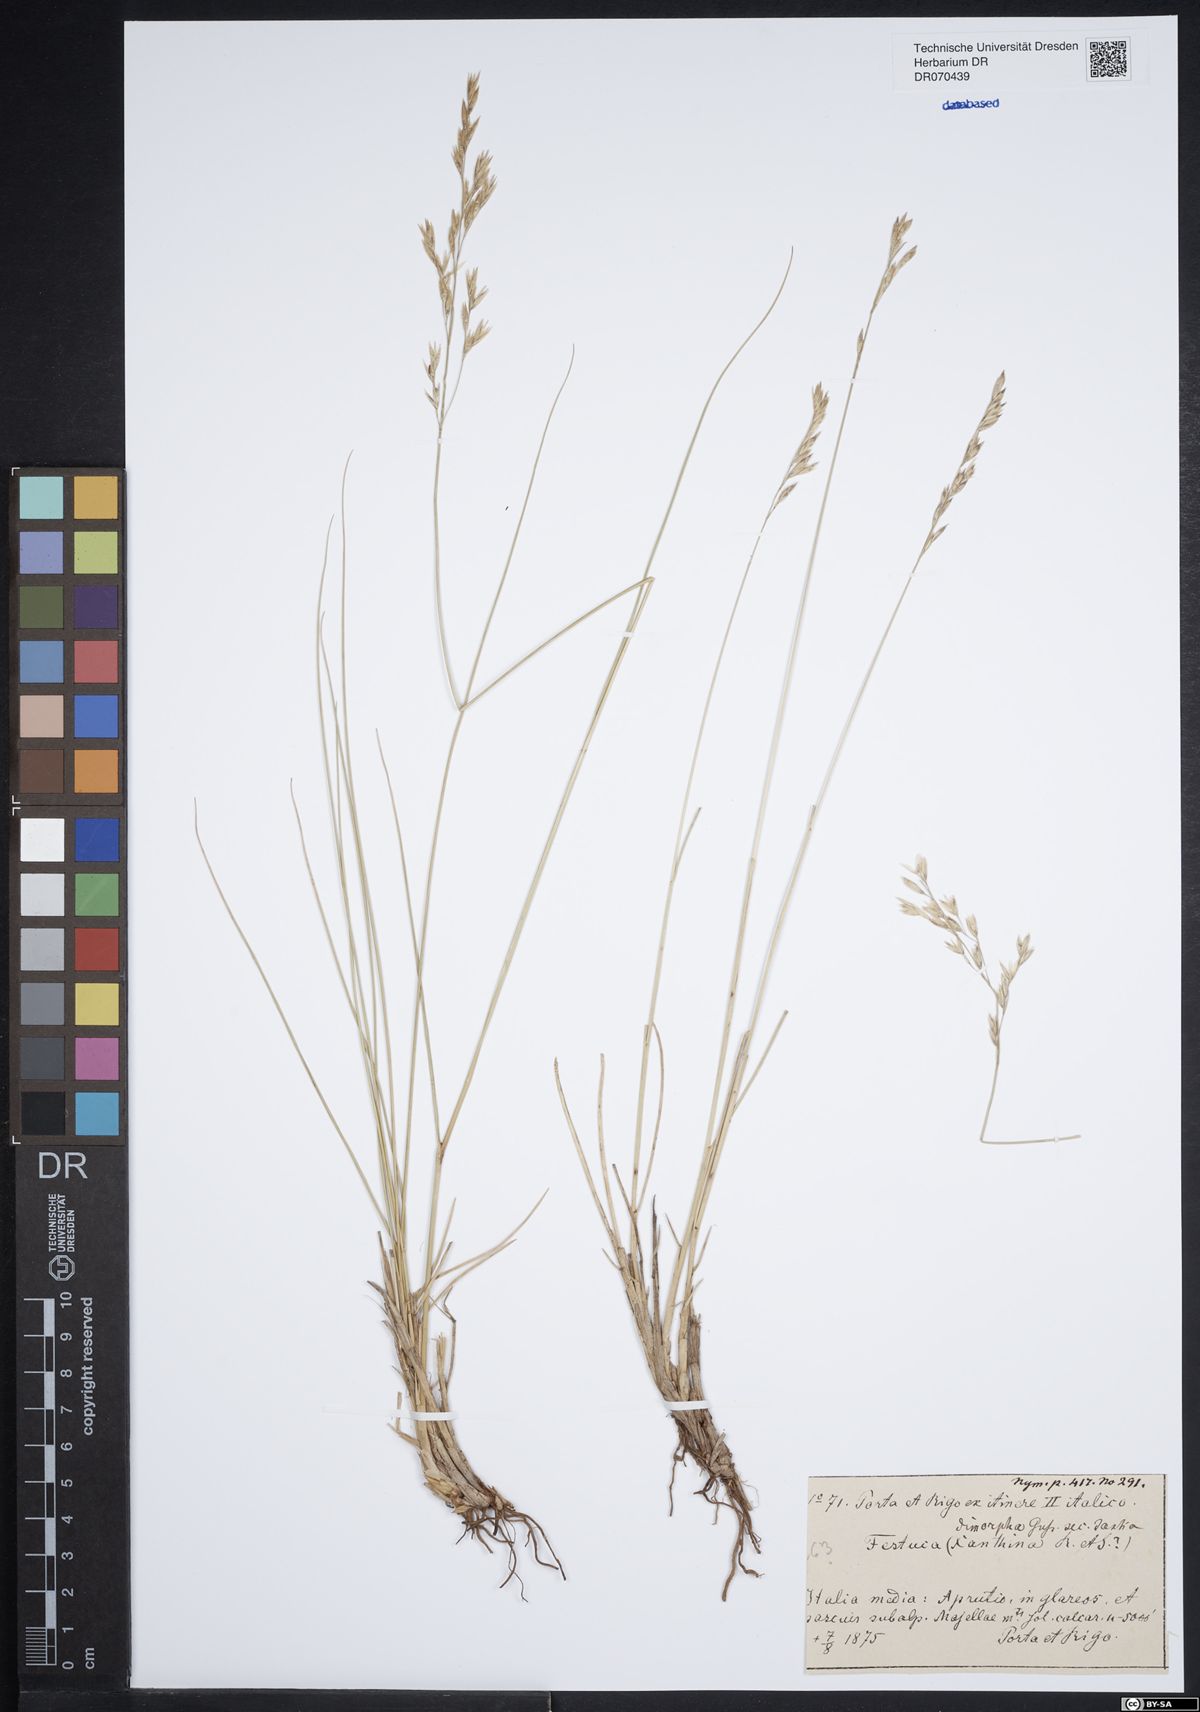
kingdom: Plantae
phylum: Tracheophyta
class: Liliopsida
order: Poales
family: Poaceae
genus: Festuca
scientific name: Festuca dimorpha
